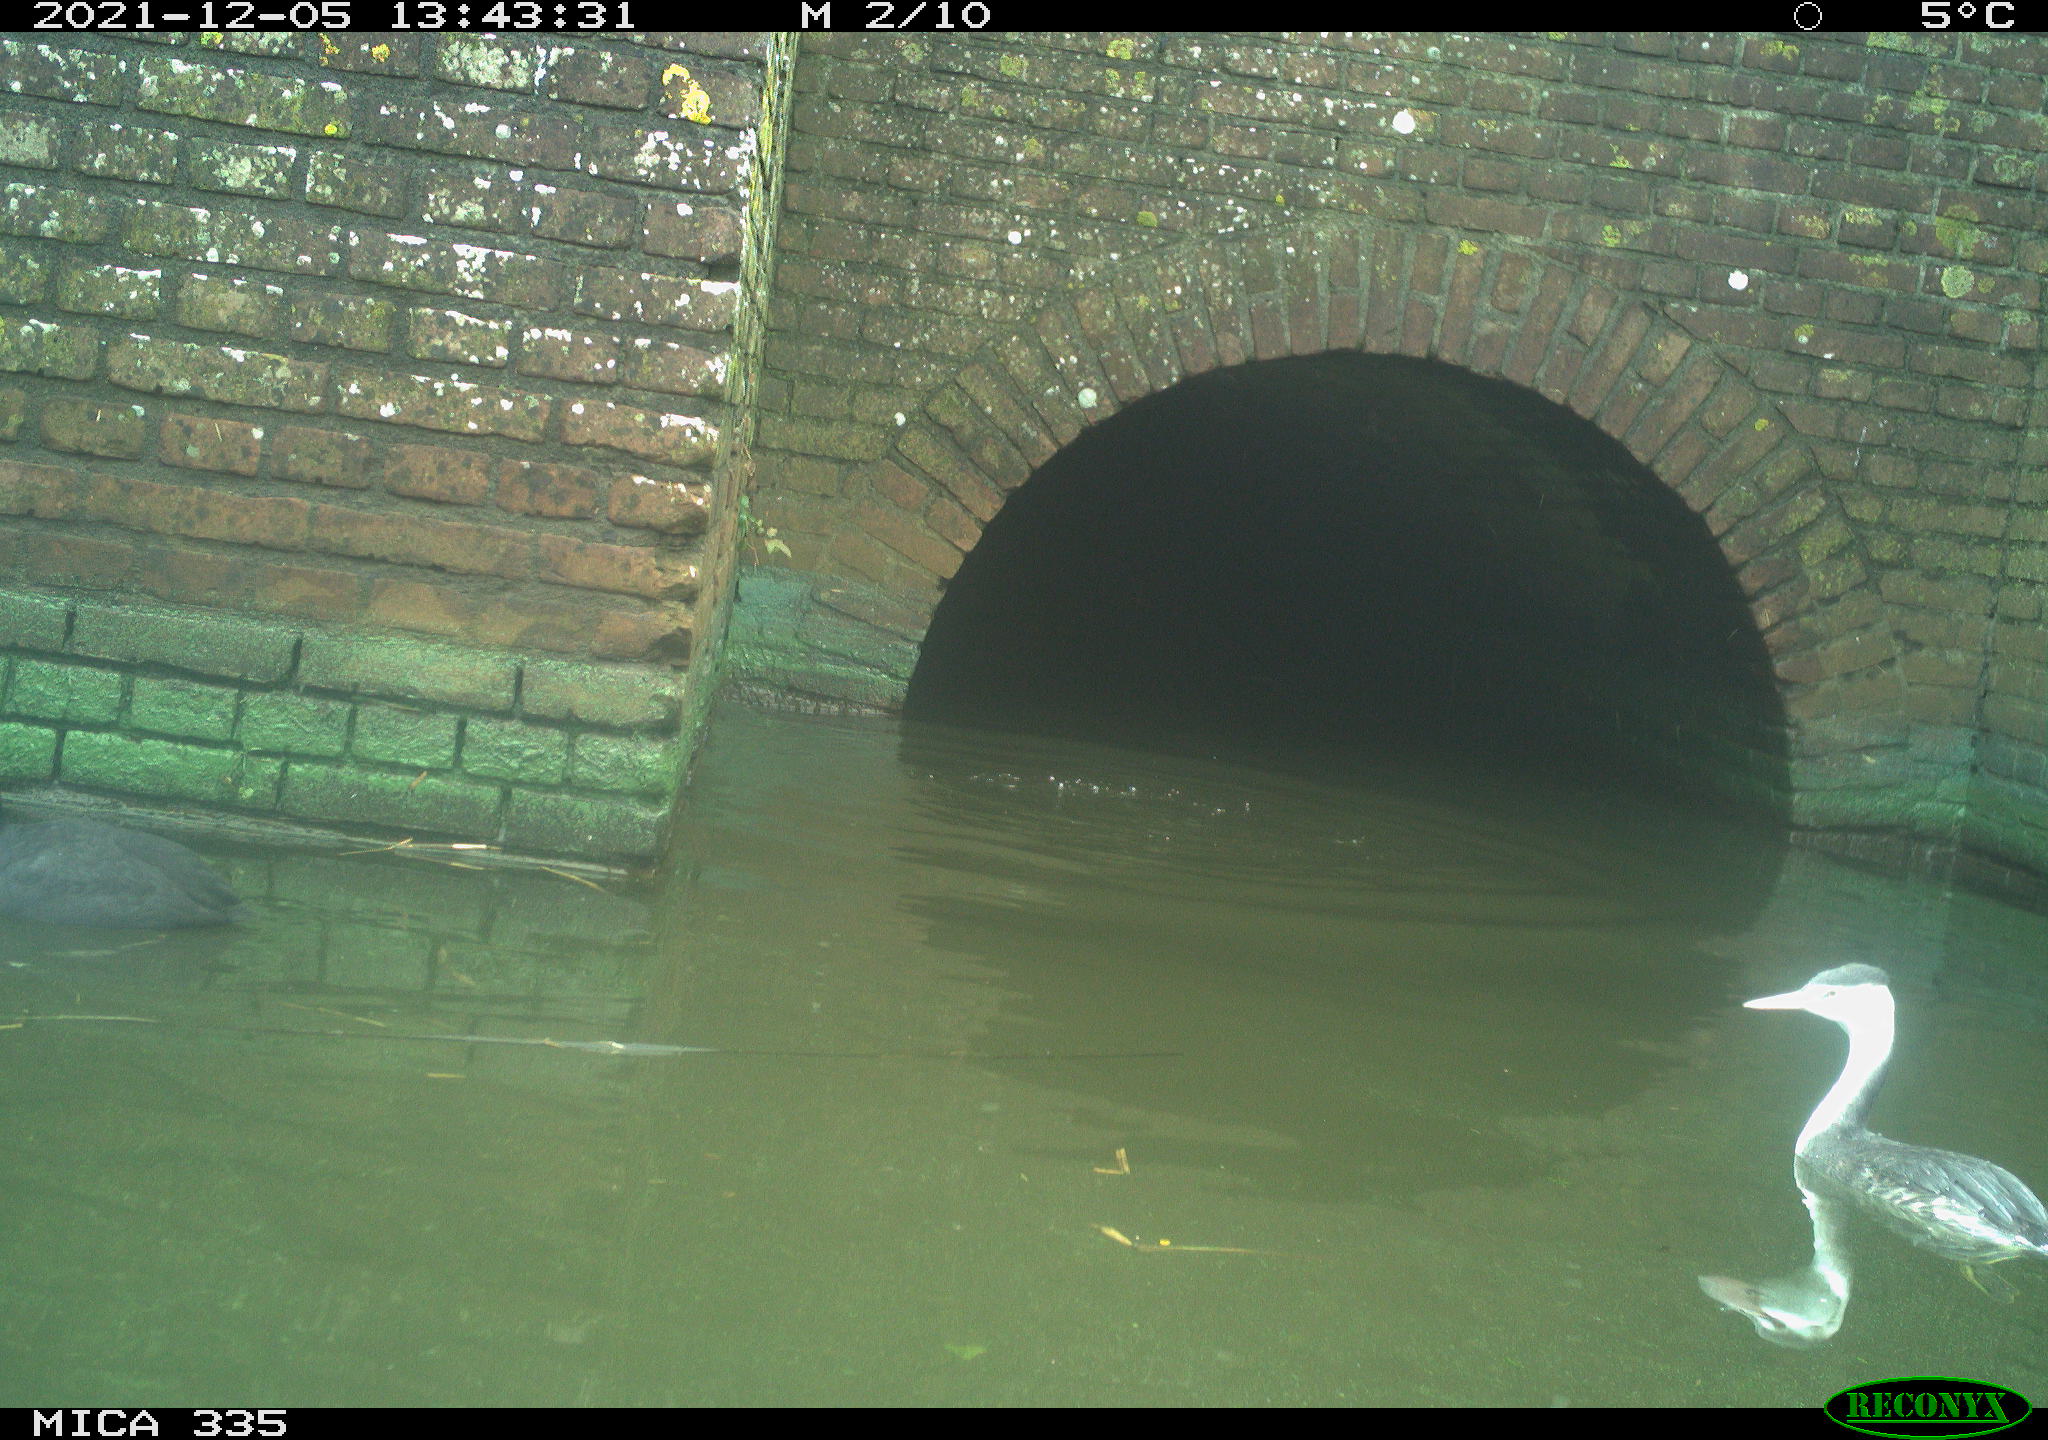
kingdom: Animalia
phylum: Chordata
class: Aves
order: Gruiformes
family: Rallidae
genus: Fulica
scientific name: Fulica atra
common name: Eurasian coot
